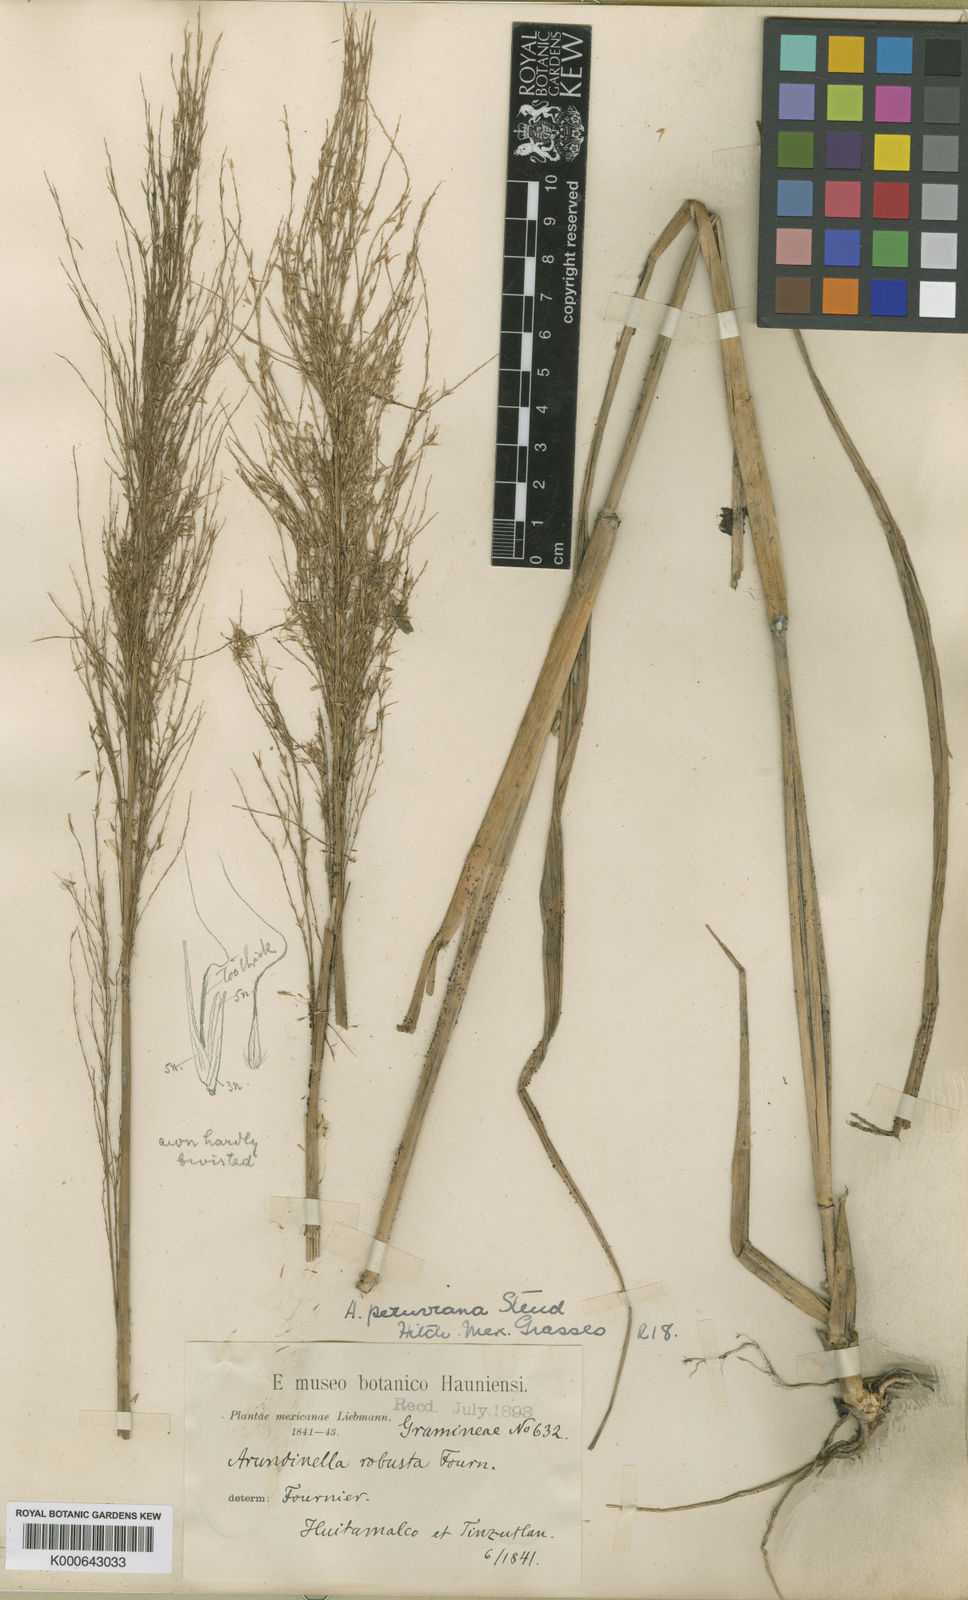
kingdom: Plantae
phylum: Tracheophyta
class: Liliopsida
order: Poales
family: Poaceae
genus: Arundinella
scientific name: Arundinella berteroniana
